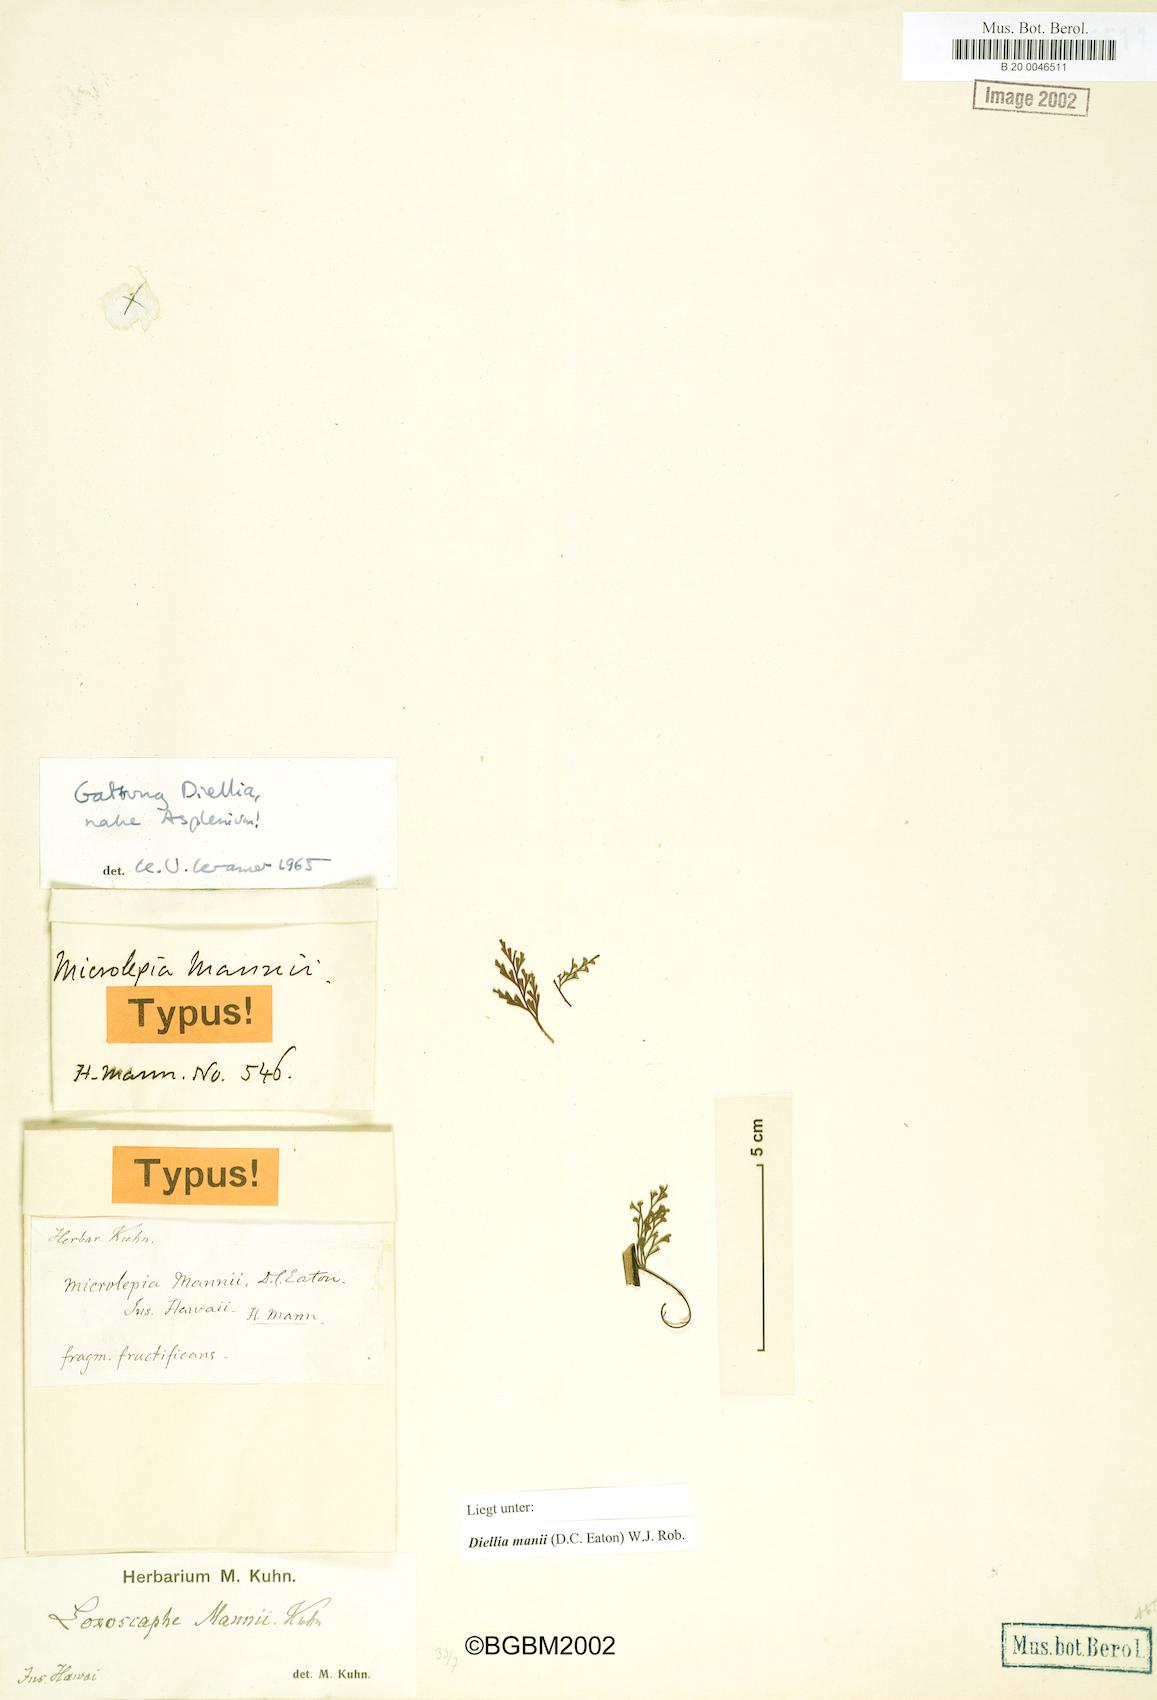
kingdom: Plantae
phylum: Tracheophyta
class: Polypodiopsida
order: Polypodiales
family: Aspleniaceae
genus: Asplenium
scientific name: Asplenium dielmannii
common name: Mann's island spleenwort
